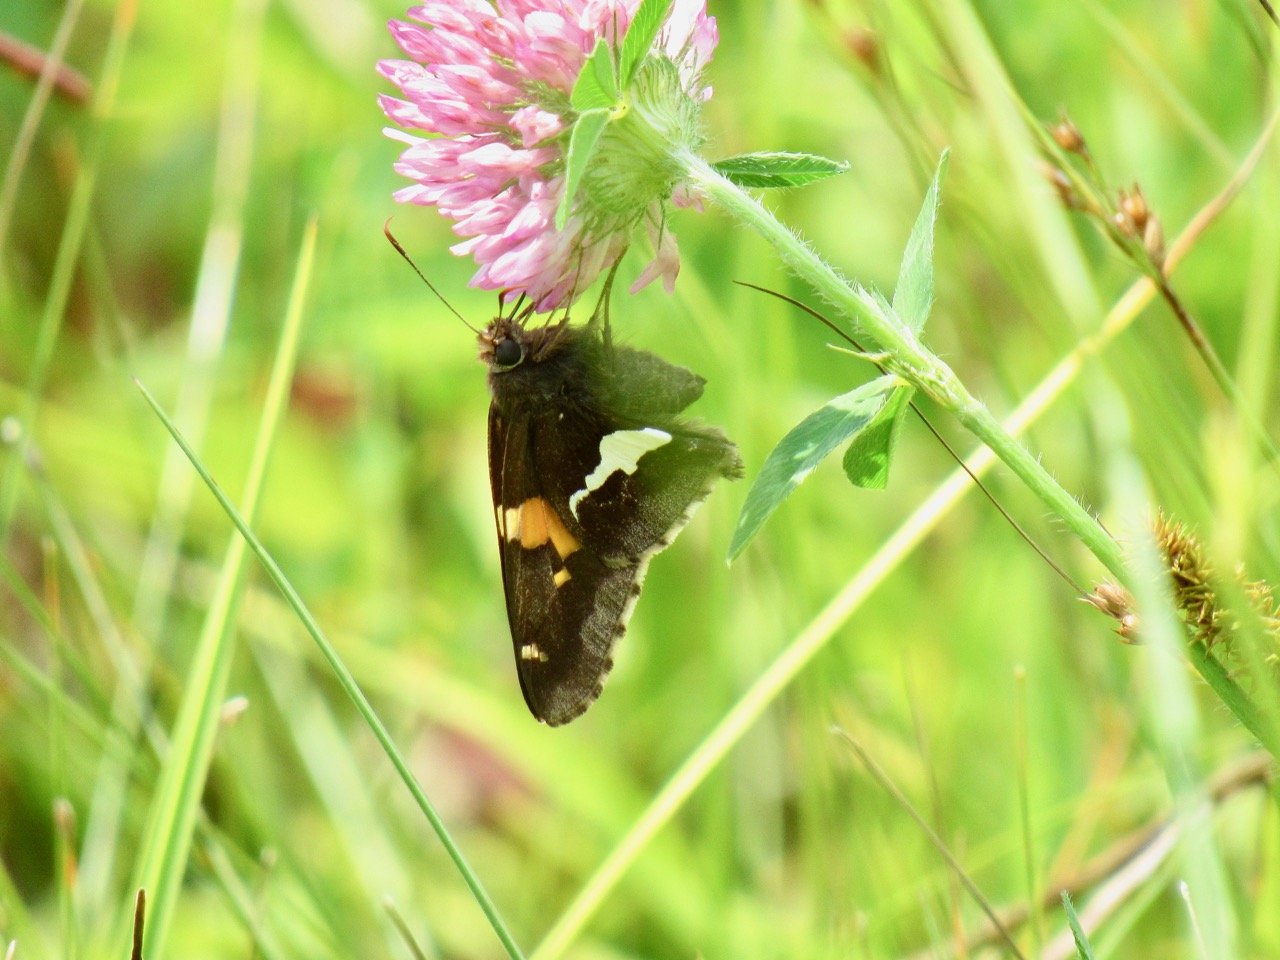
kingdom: Animalia
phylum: Arthropoda
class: Insecta
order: Lepidoptera
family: Hesperiidae
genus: Epargyreus
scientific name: Epargyreus clarus
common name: Silver-spotted Skipper
